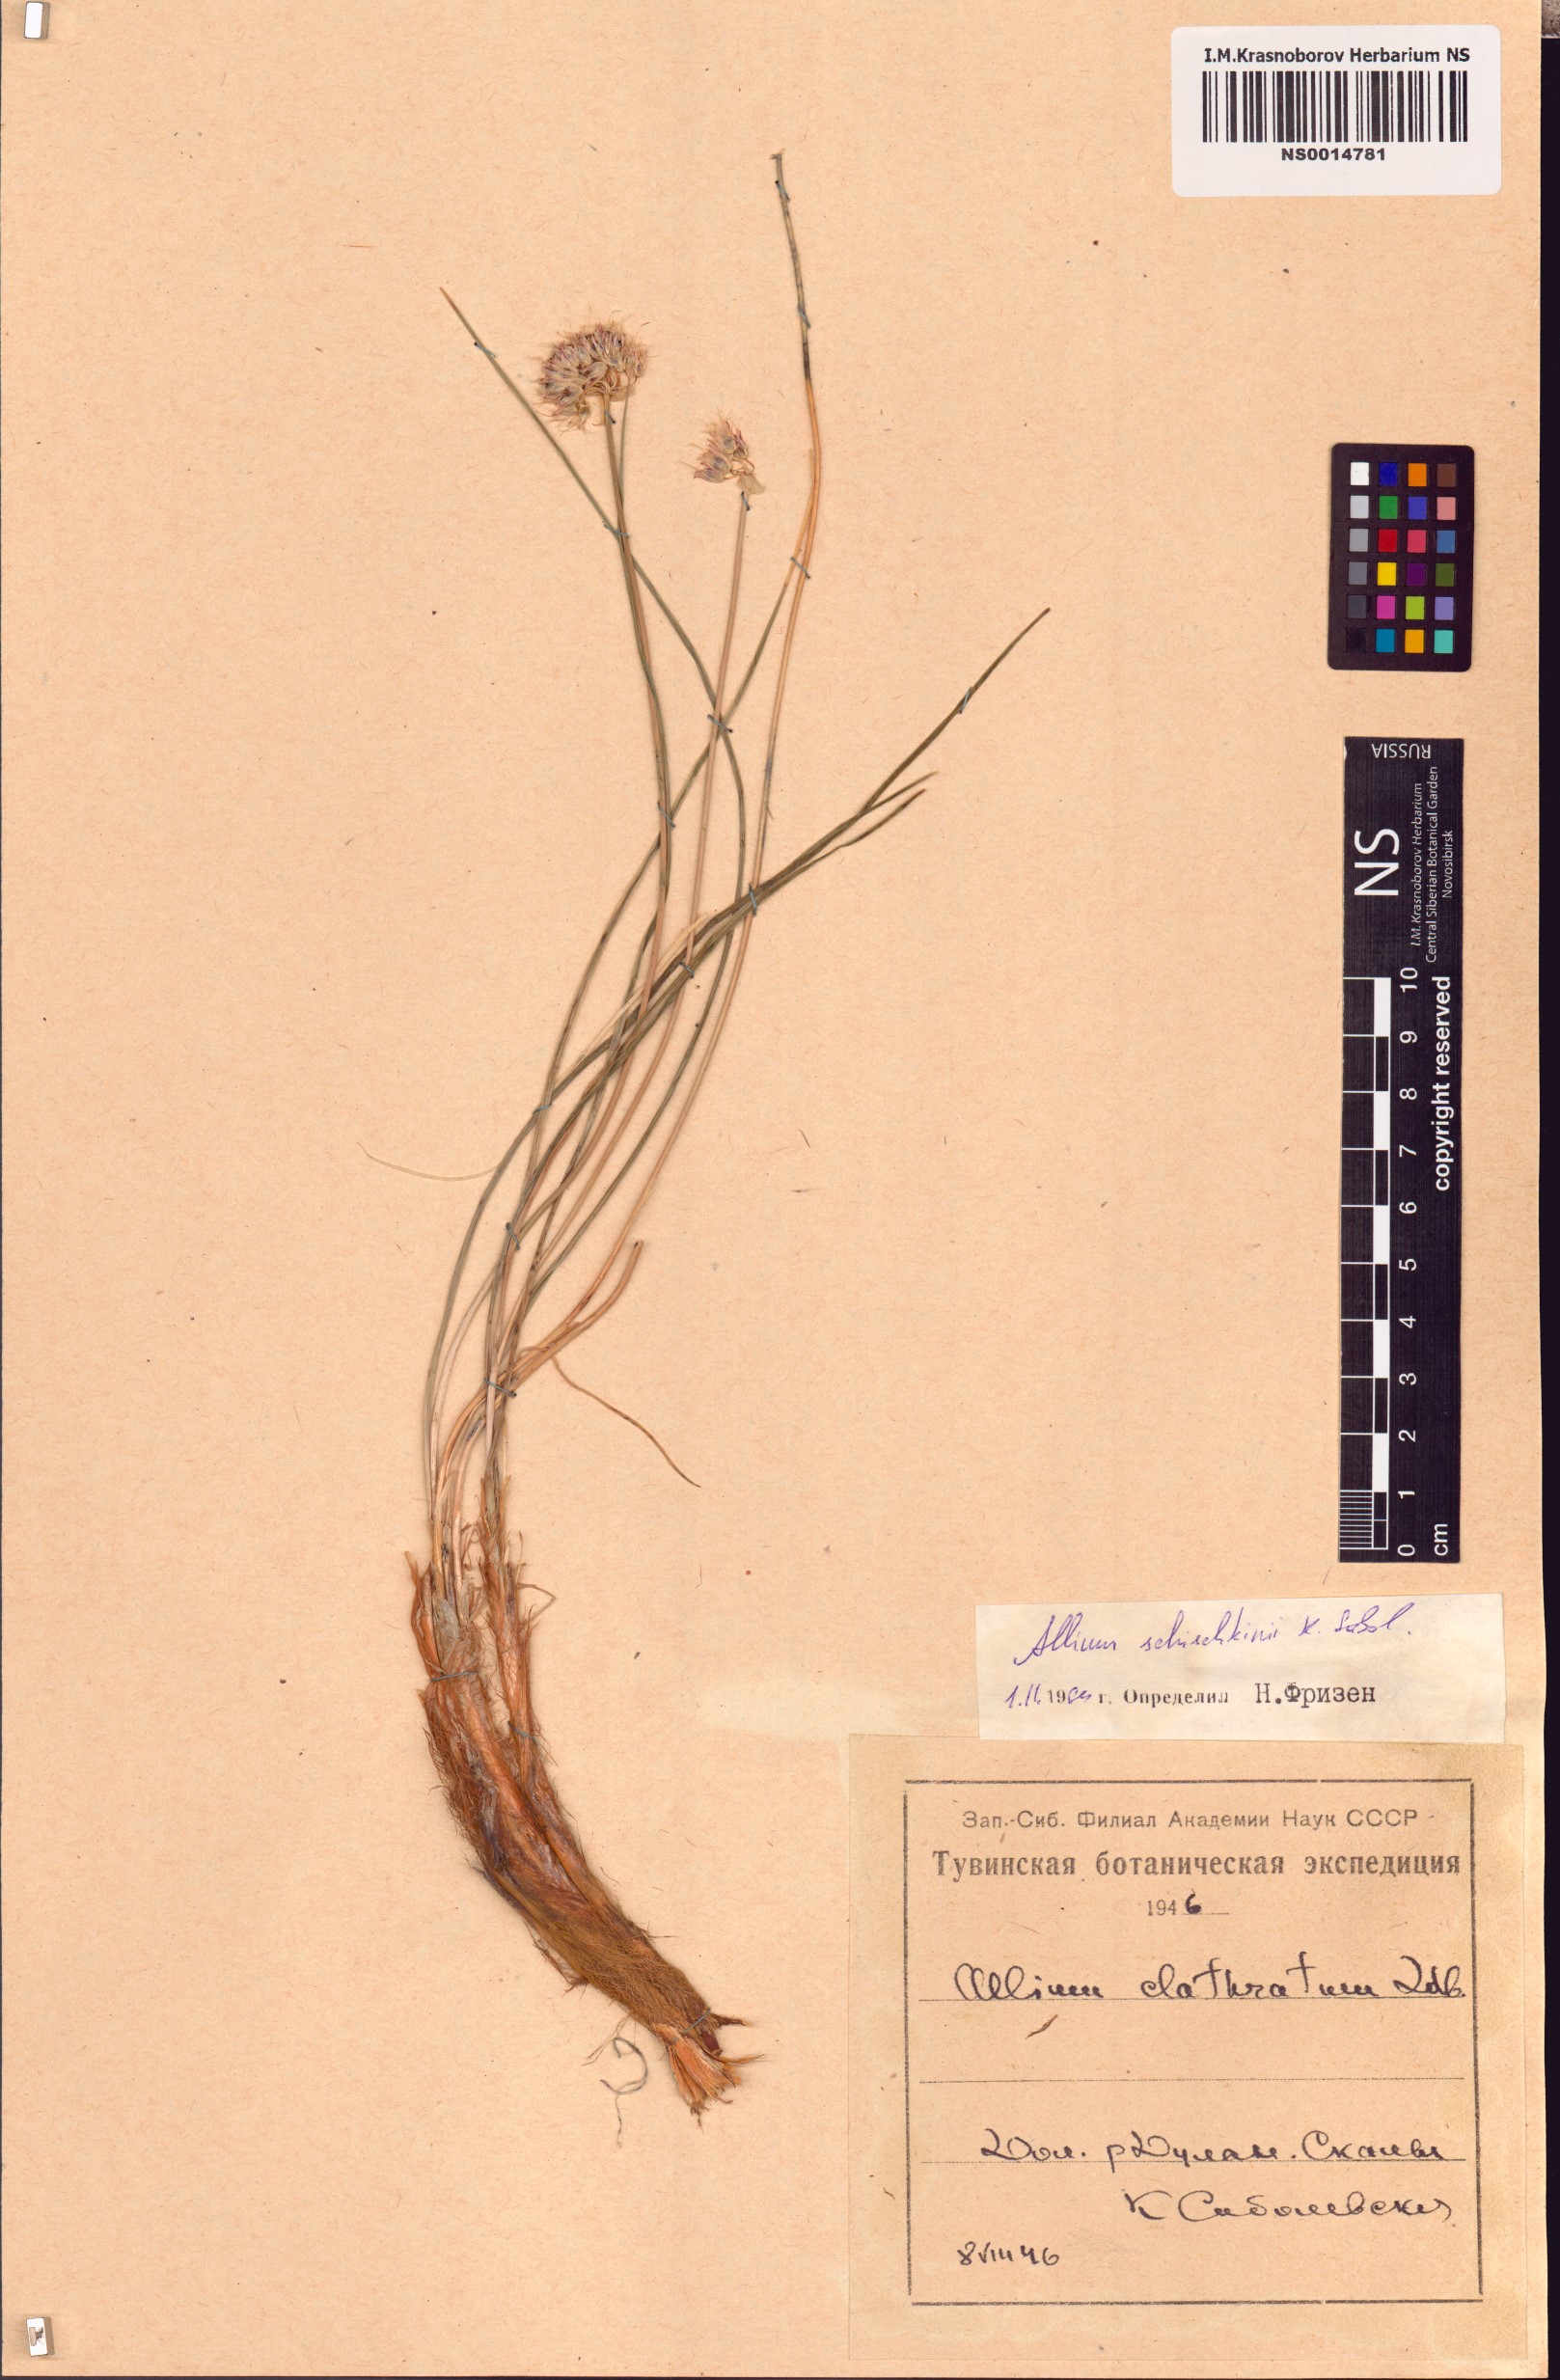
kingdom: Plantae
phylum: Tracheophyta
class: Liliopsida
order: Asparagales
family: Amaryllidaceae
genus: Allium
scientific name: Allium schischkinii
